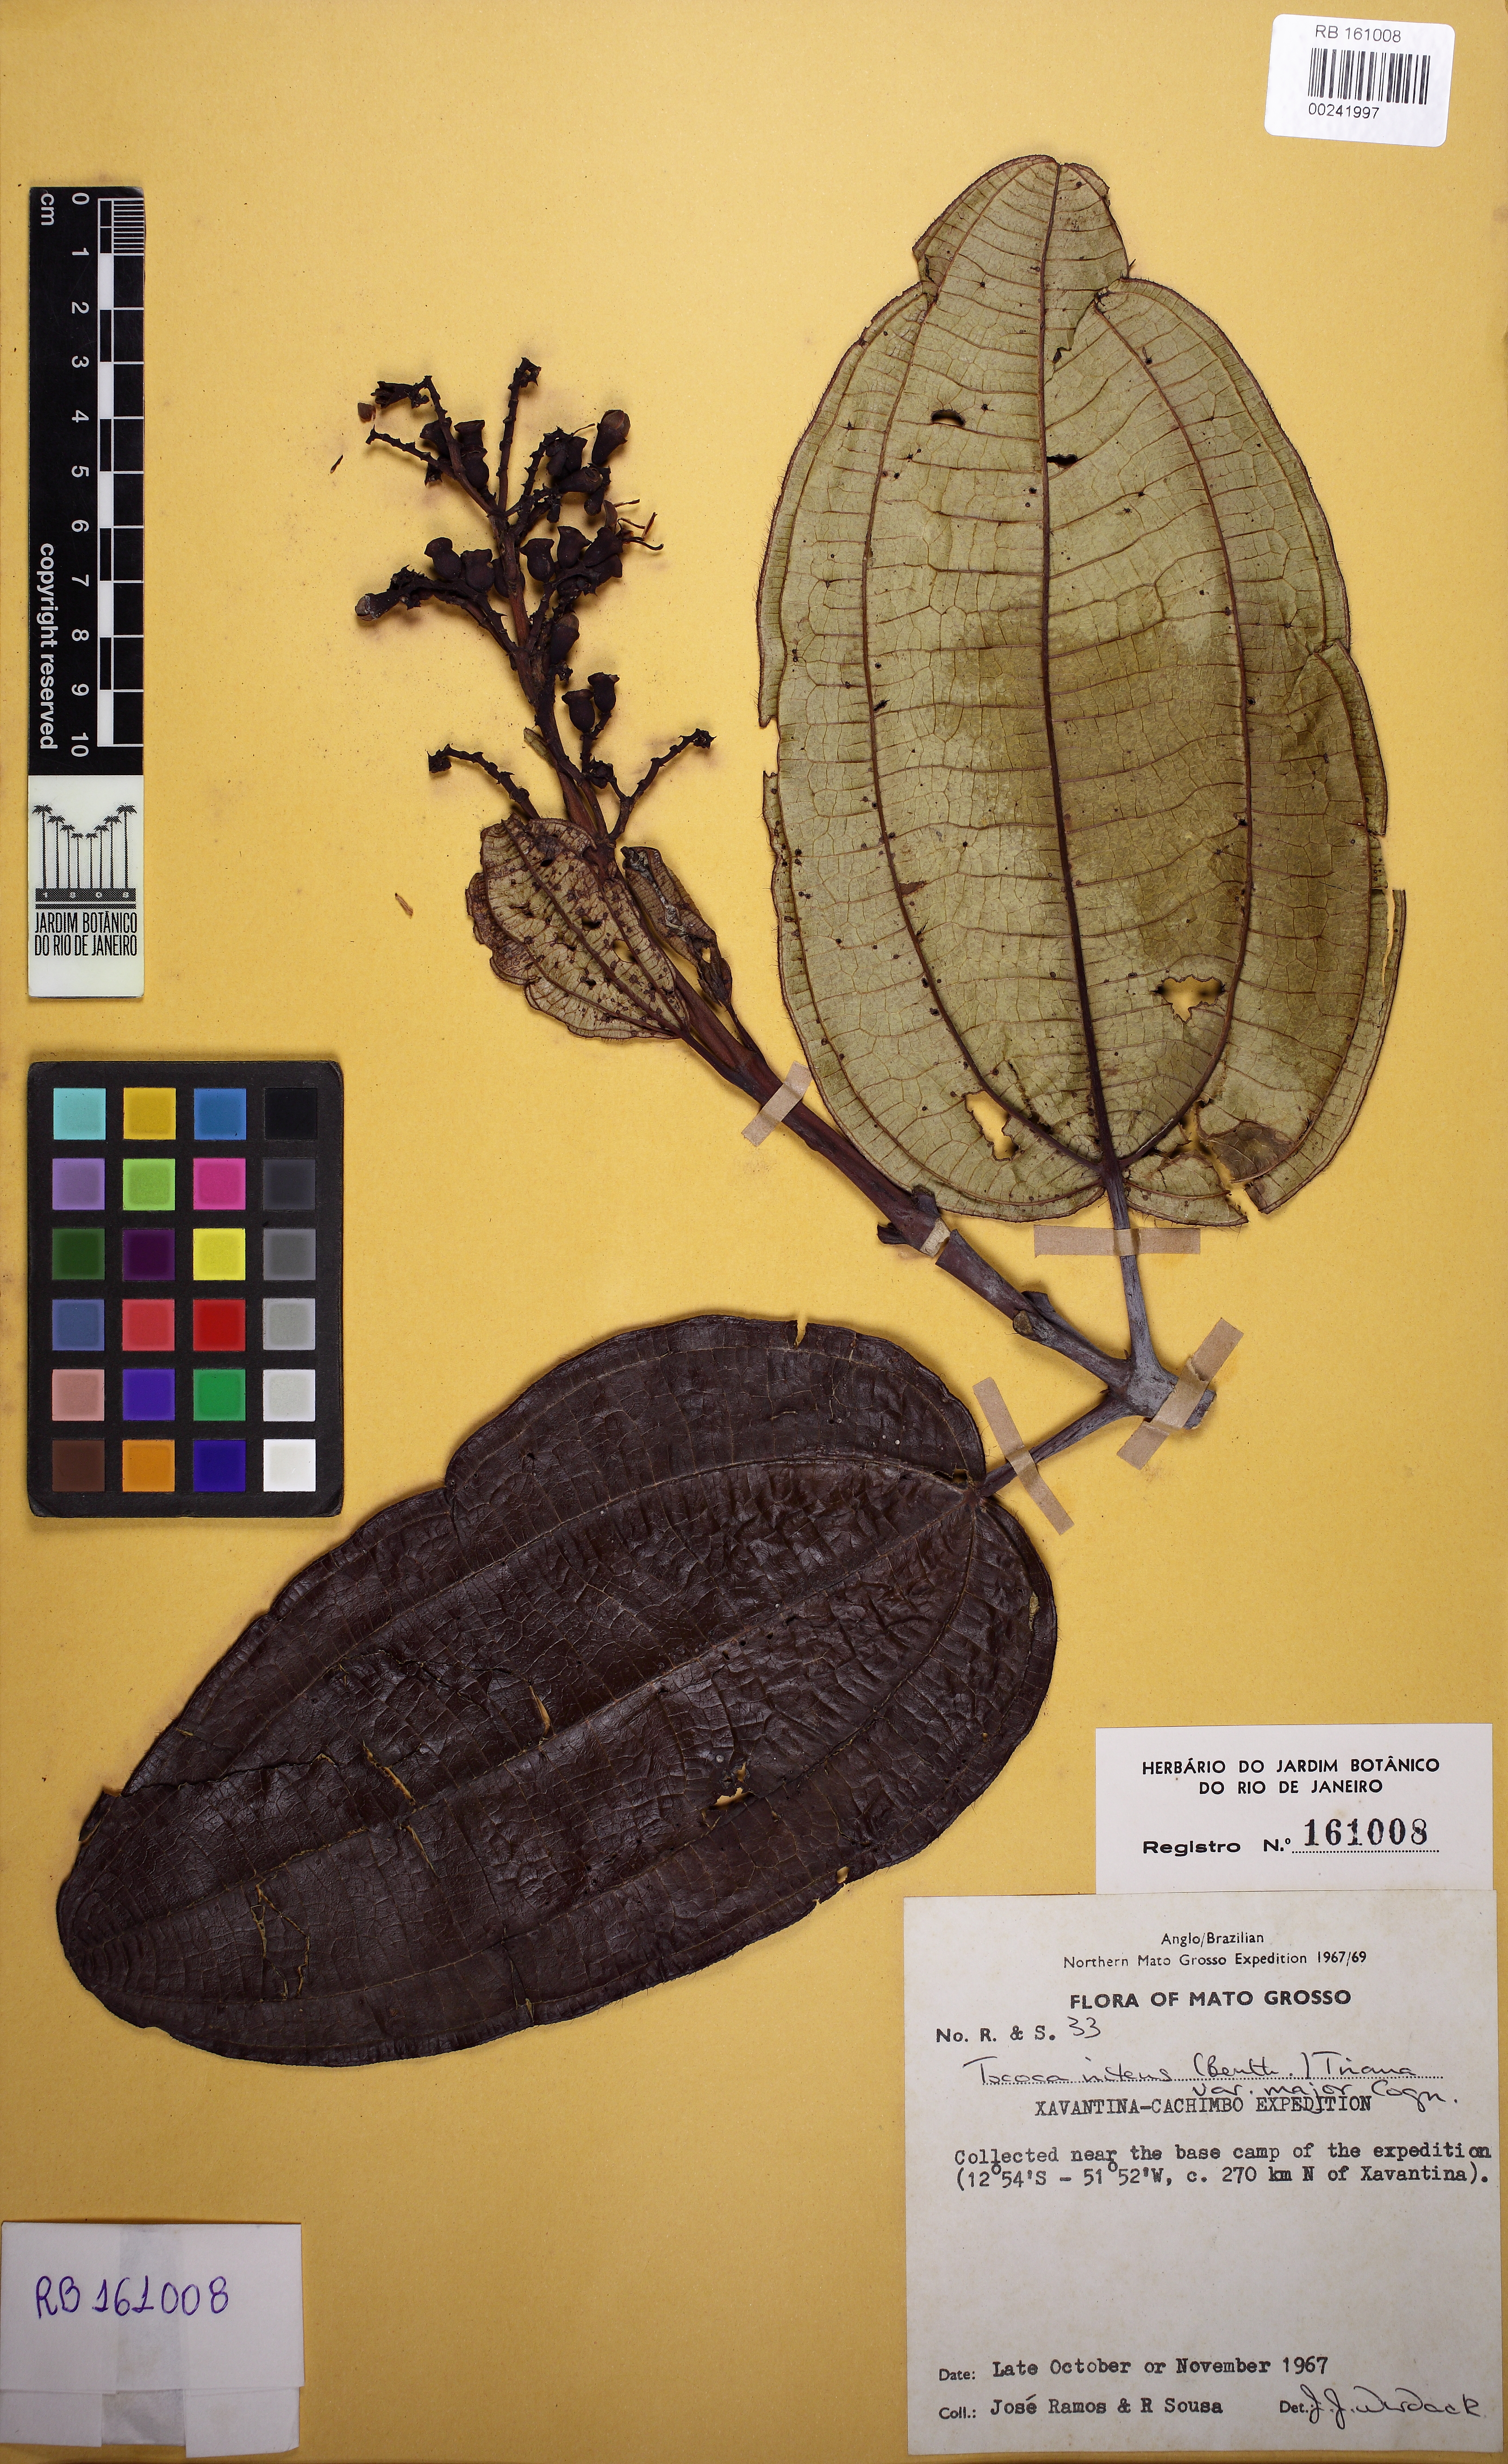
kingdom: Plantae
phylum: Tracheophyta
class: Magnoliopsida
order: Myrtales
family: Melastomataceae
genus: Miconia
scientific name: Miconia nitens
